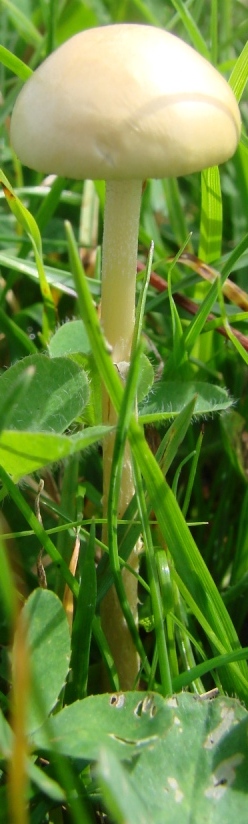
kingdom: Fungi
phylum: Basidiomycota
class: Agaricomycetes
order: Agaricales
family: Strophariaceae
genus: Protostropharia
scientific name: Protostropharia semiglobata
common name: halvkugleformet bredblad
